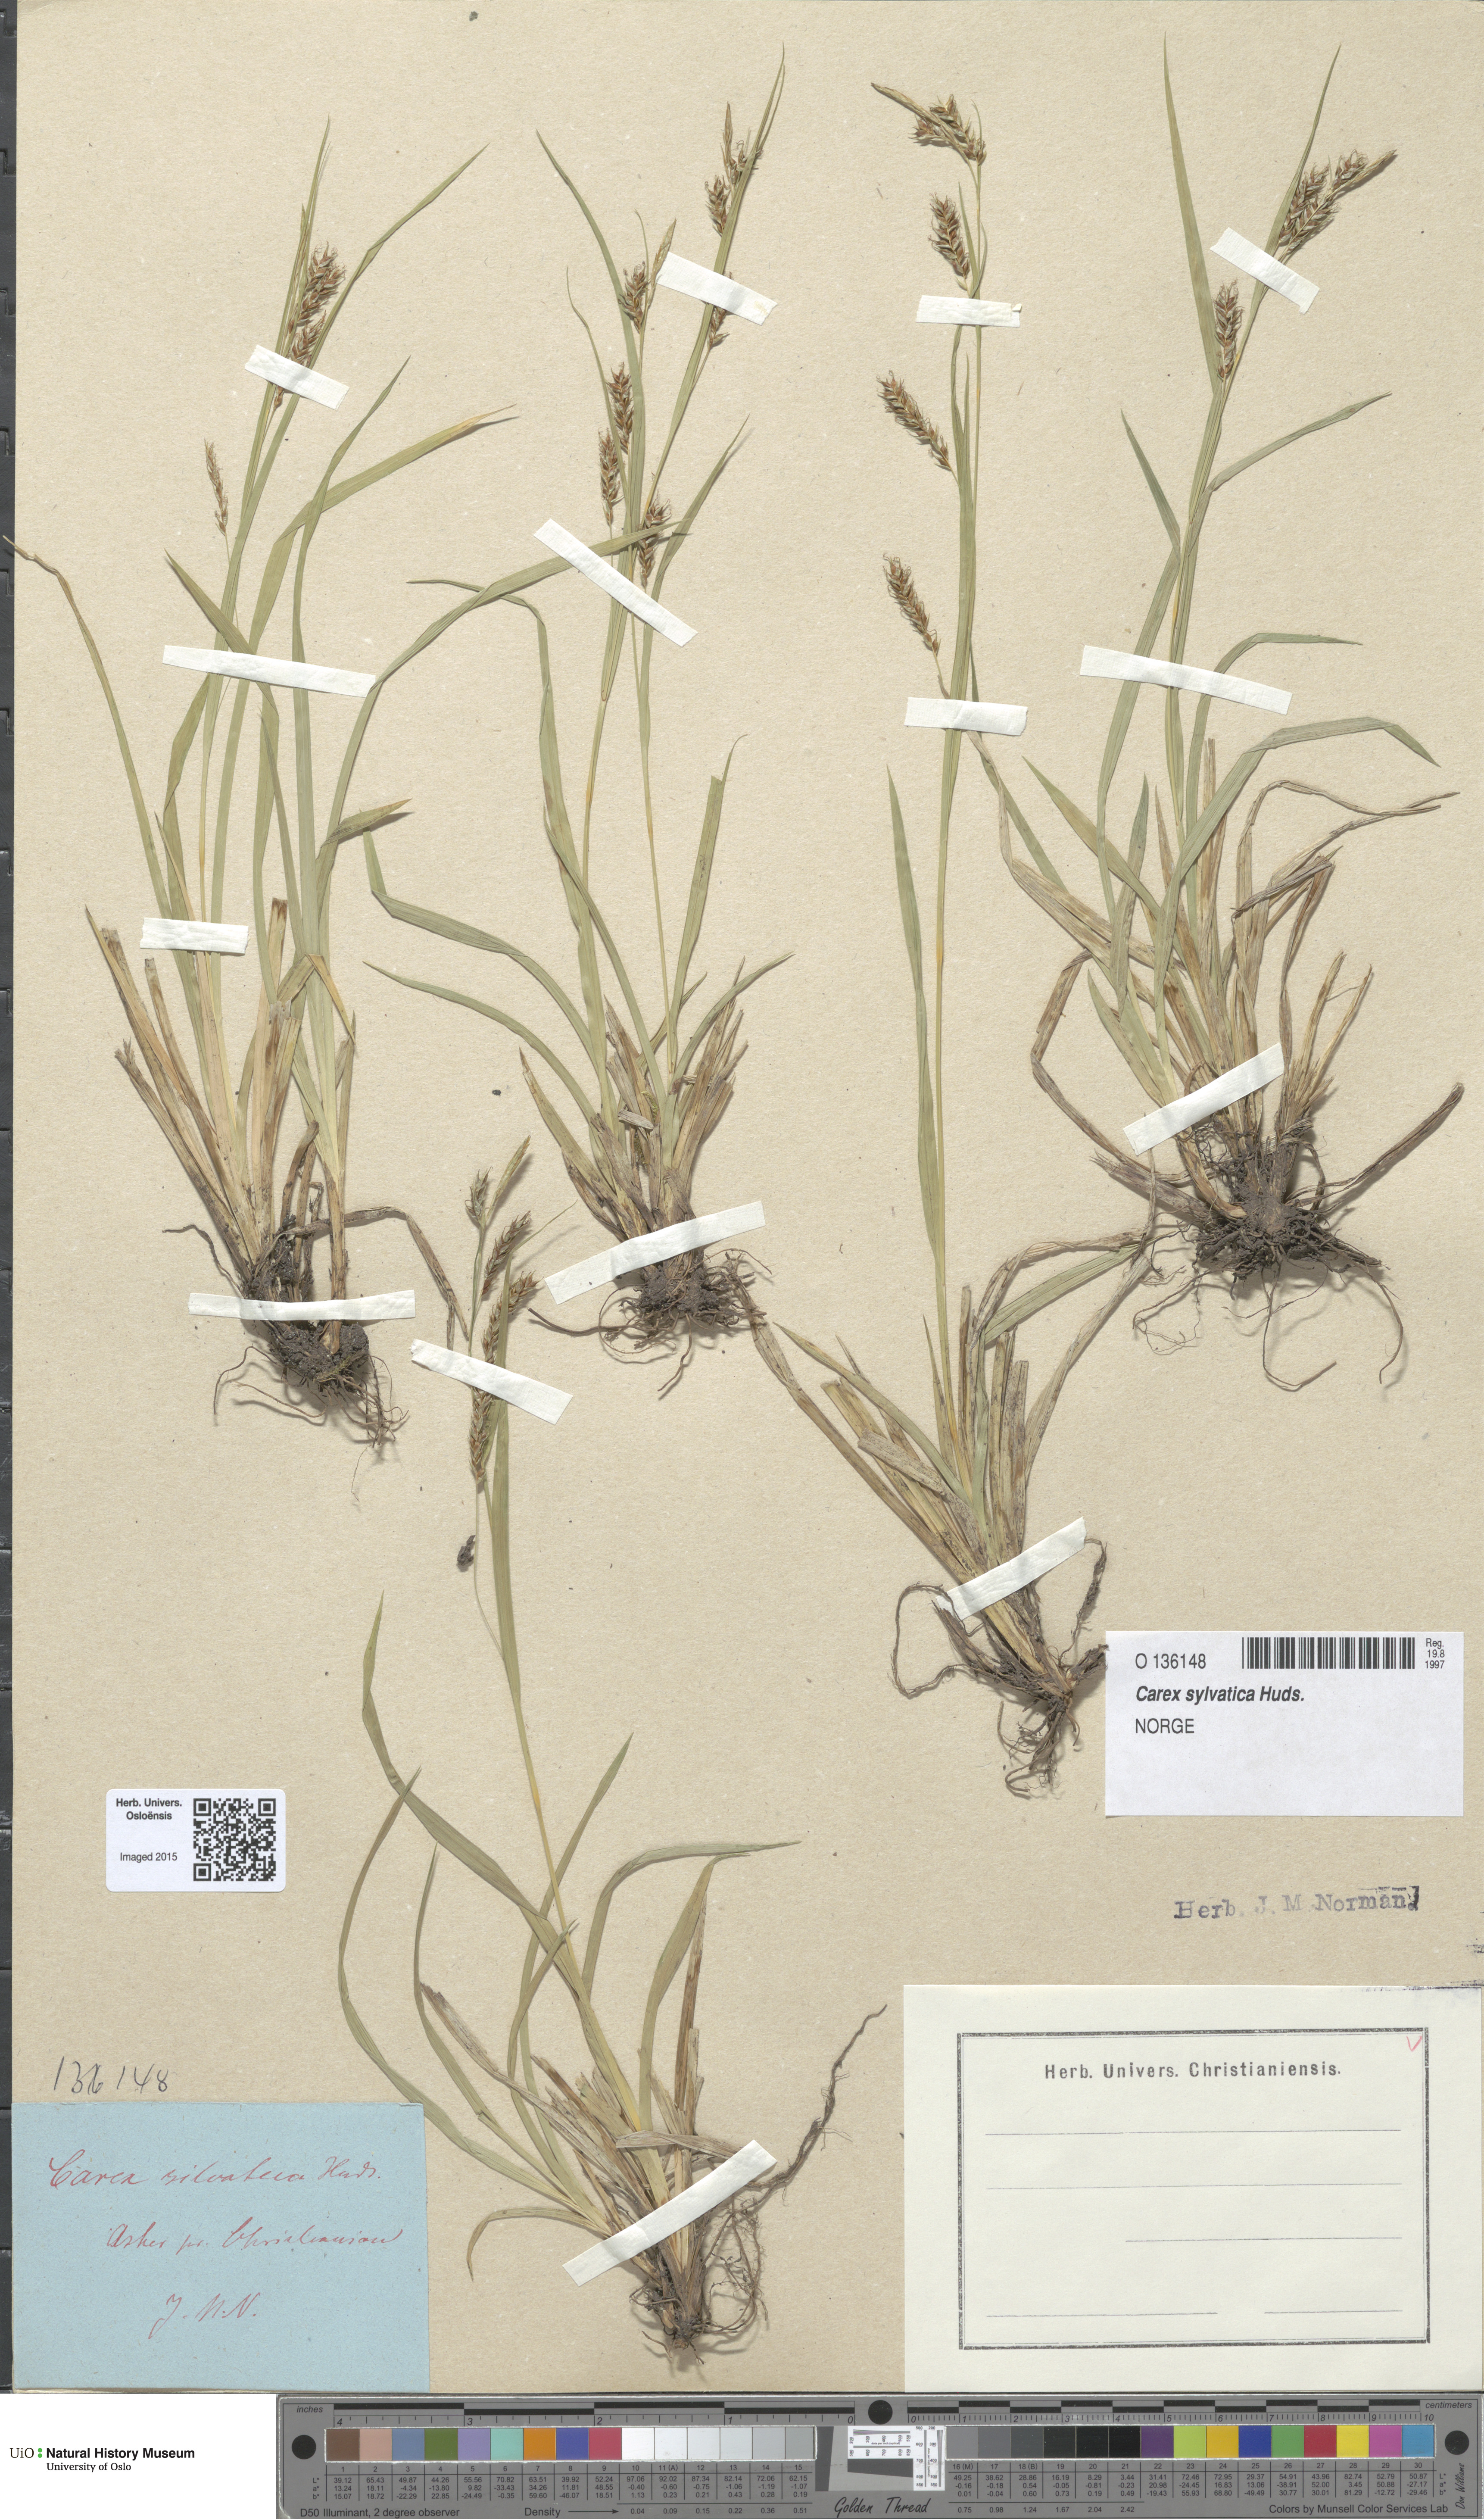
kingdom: Plantae
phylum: Tracheophyta
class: Liliopsida
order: Poales
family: Cyperaceae
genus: Carex
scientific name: Carex sylvatica
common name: Wood-sedge
